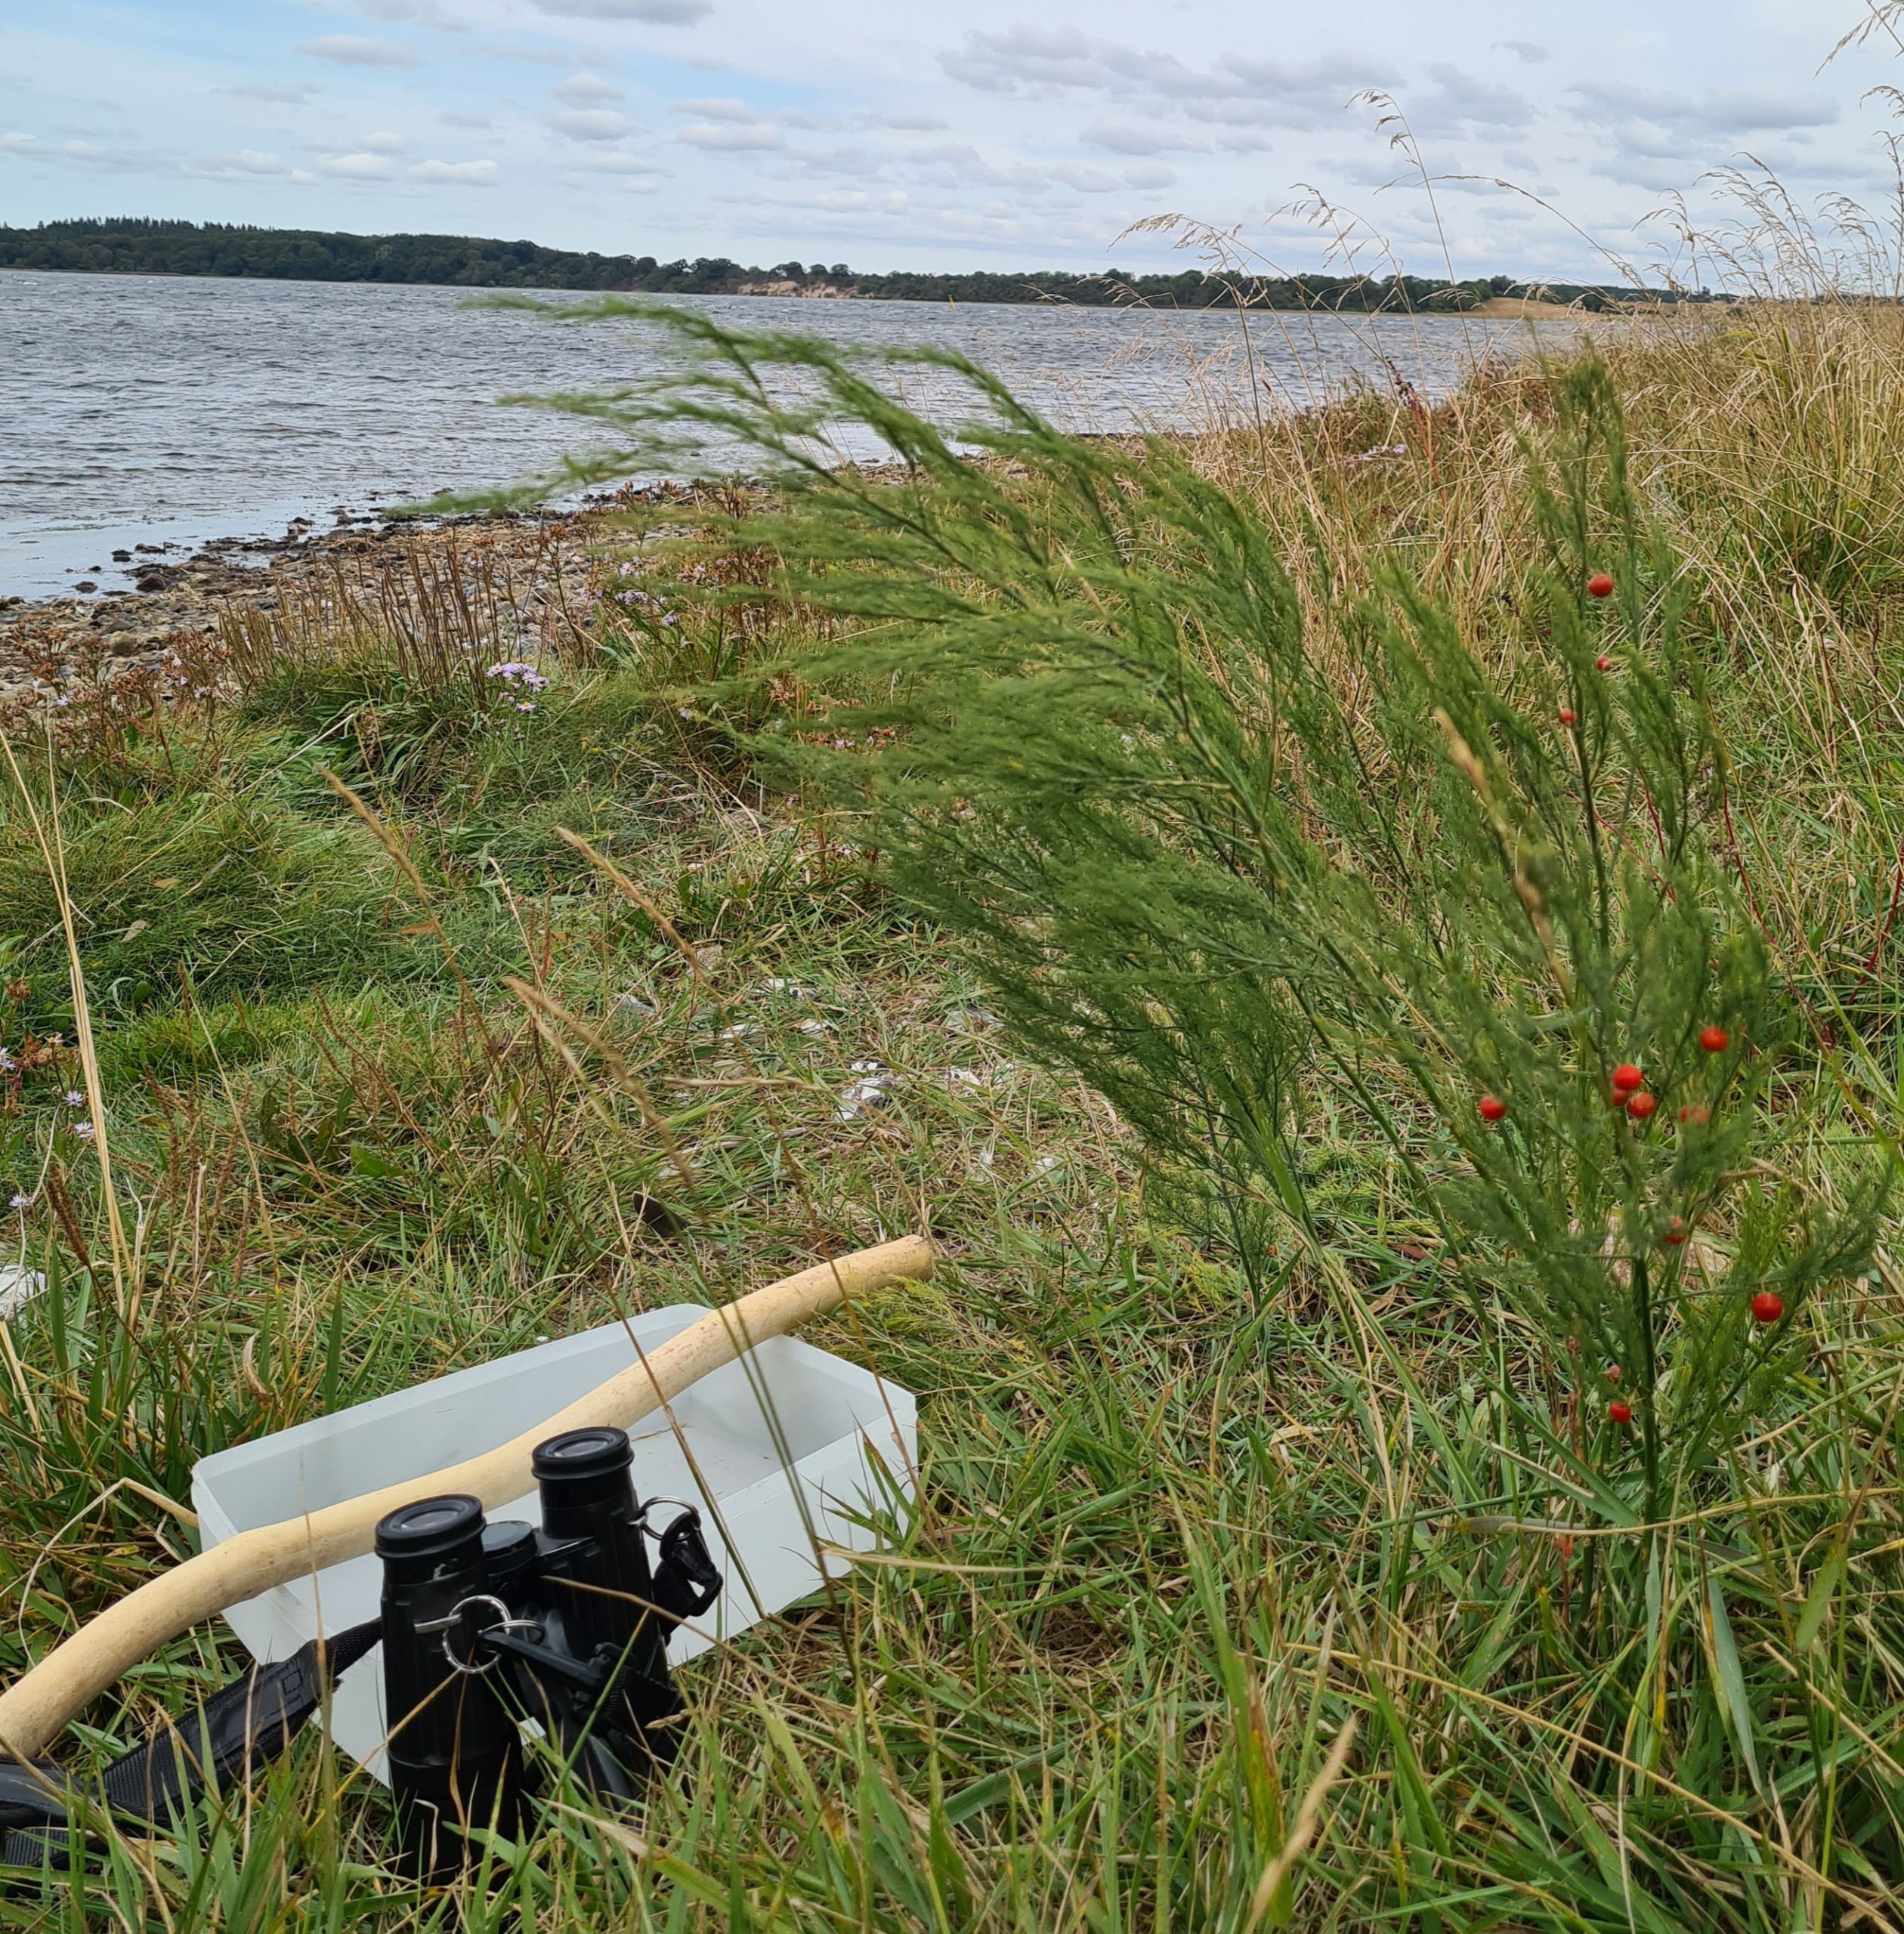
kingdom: Plantae
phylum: Tracheophyta
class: Liliopsida
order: Asparagales
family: Asparagaceae
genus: Asparagus
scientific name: Asparagus officinalis
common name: Asparges
